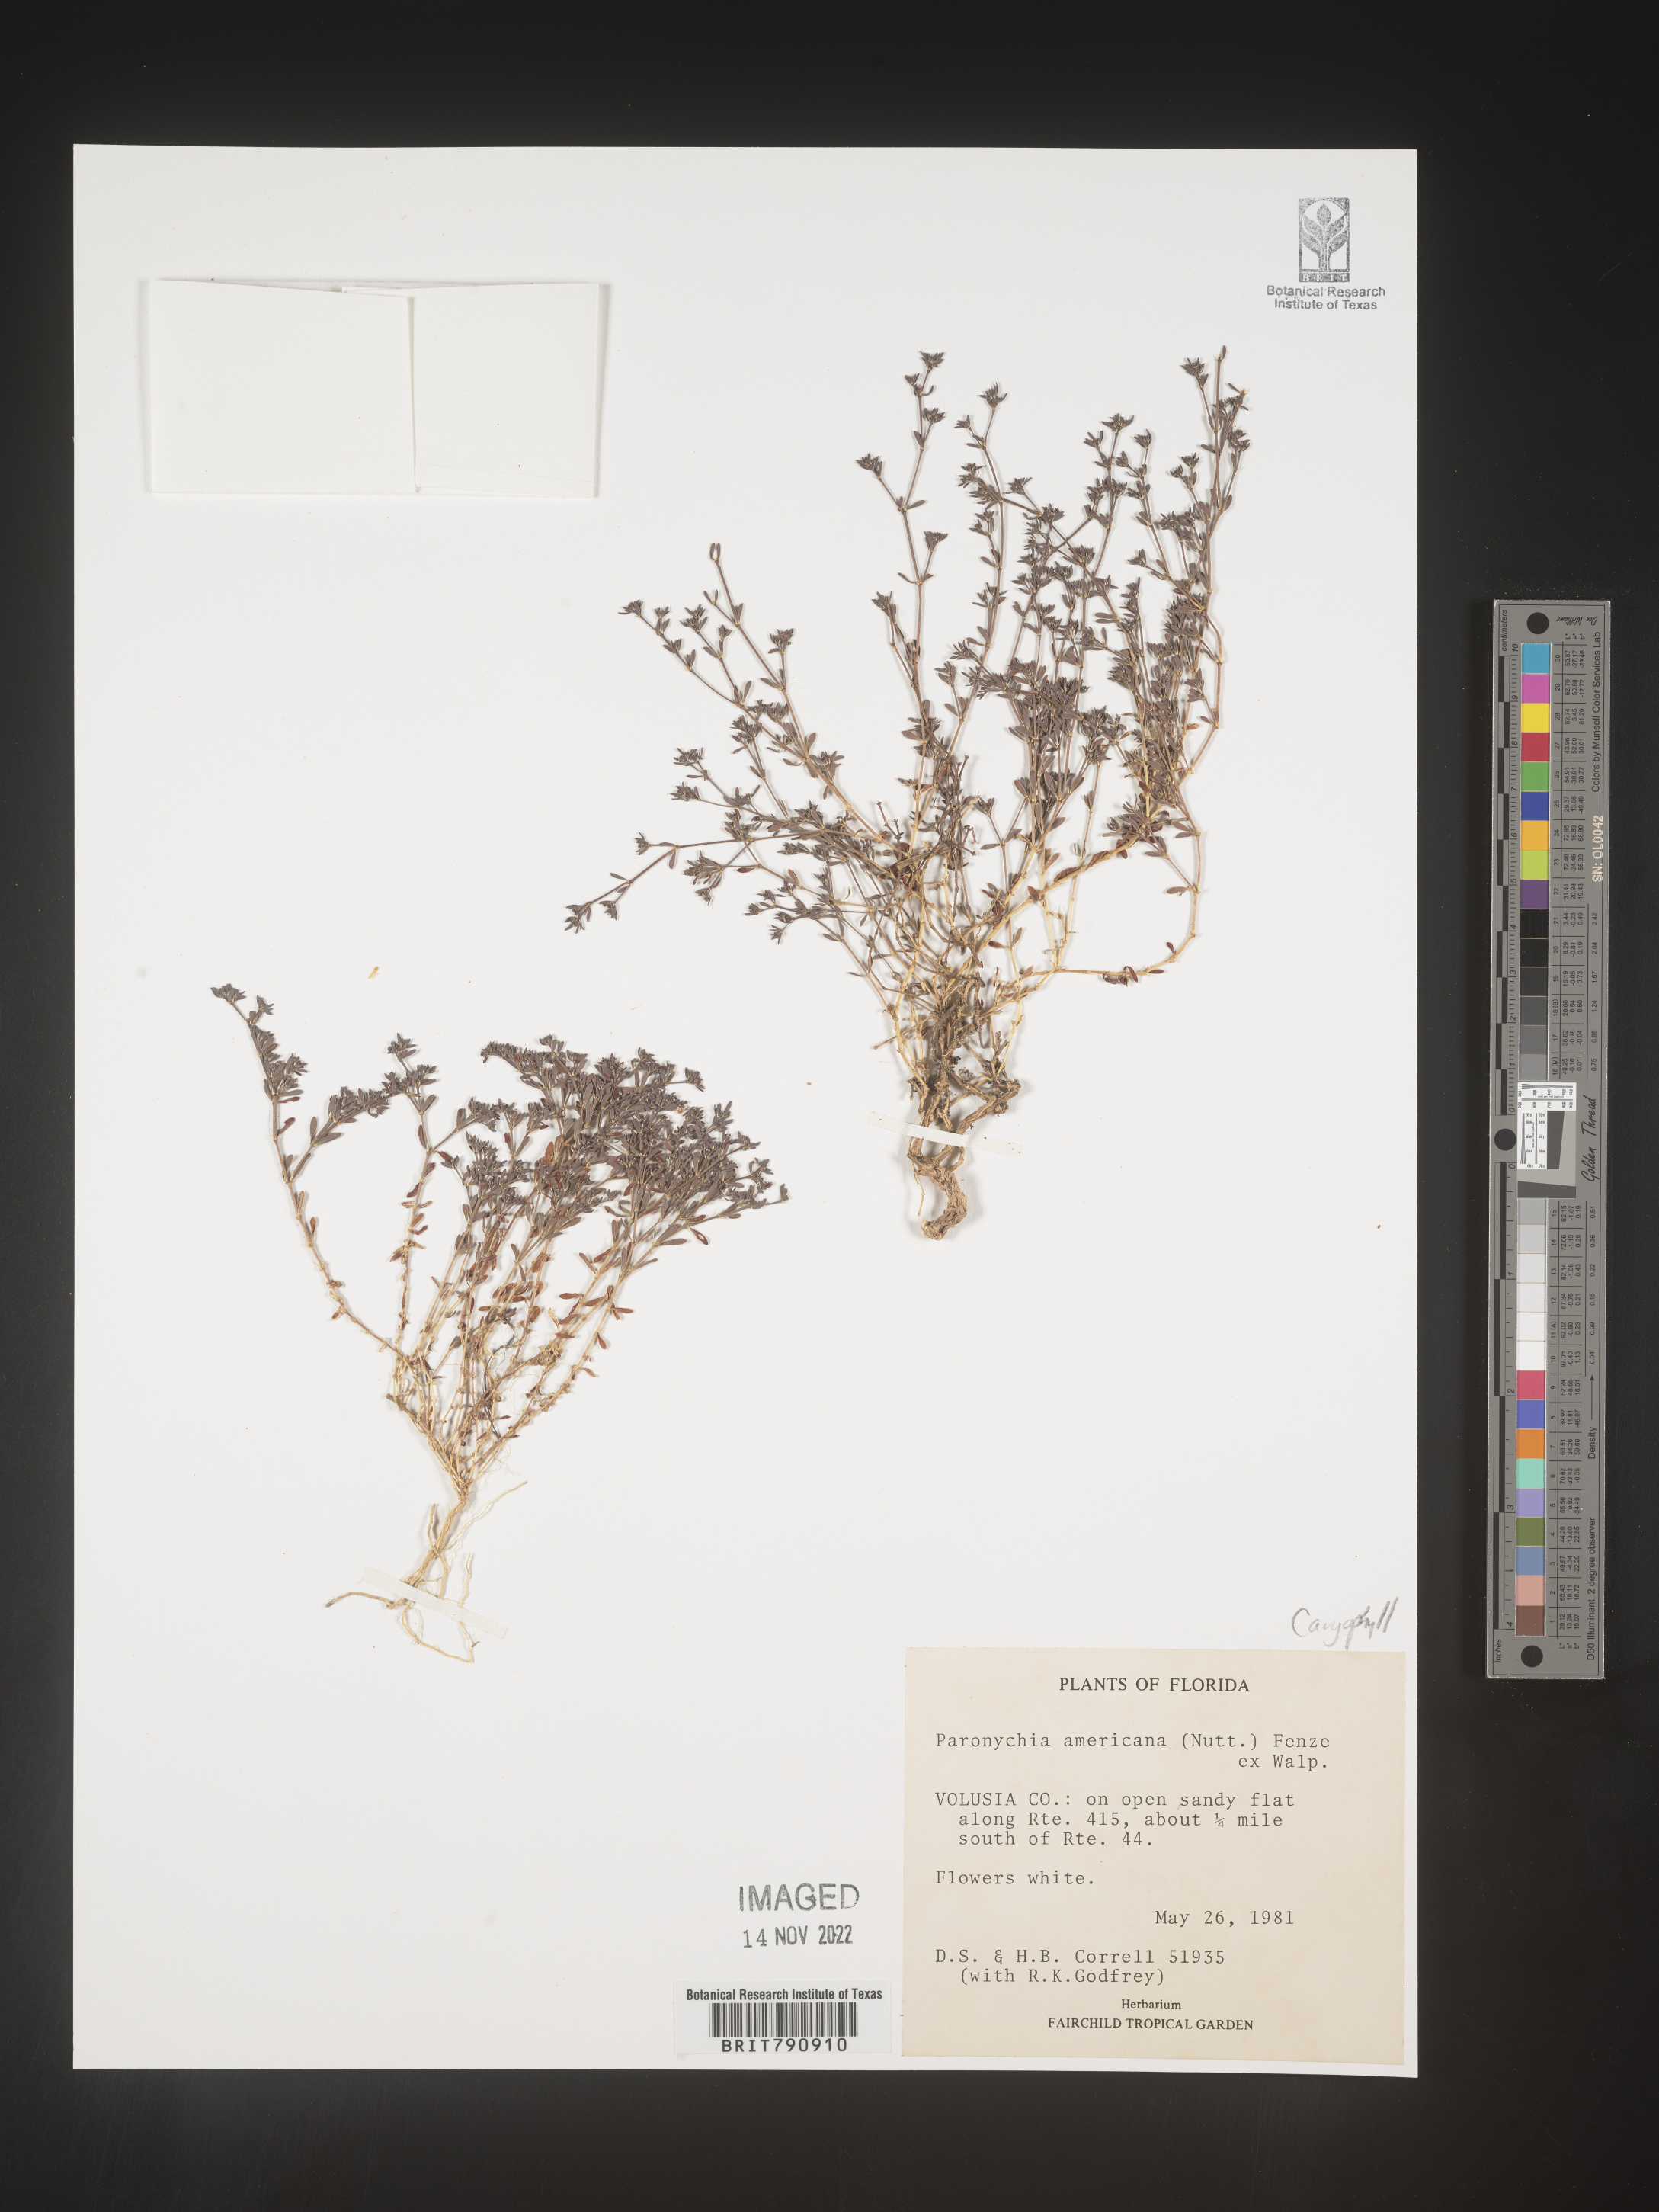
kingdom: Plantae
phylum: Tracheophyta
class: Magnoliopsida
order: Caryophyllales
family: Caryophyllaceae
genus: Paronychia
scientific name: Paronychia americana
